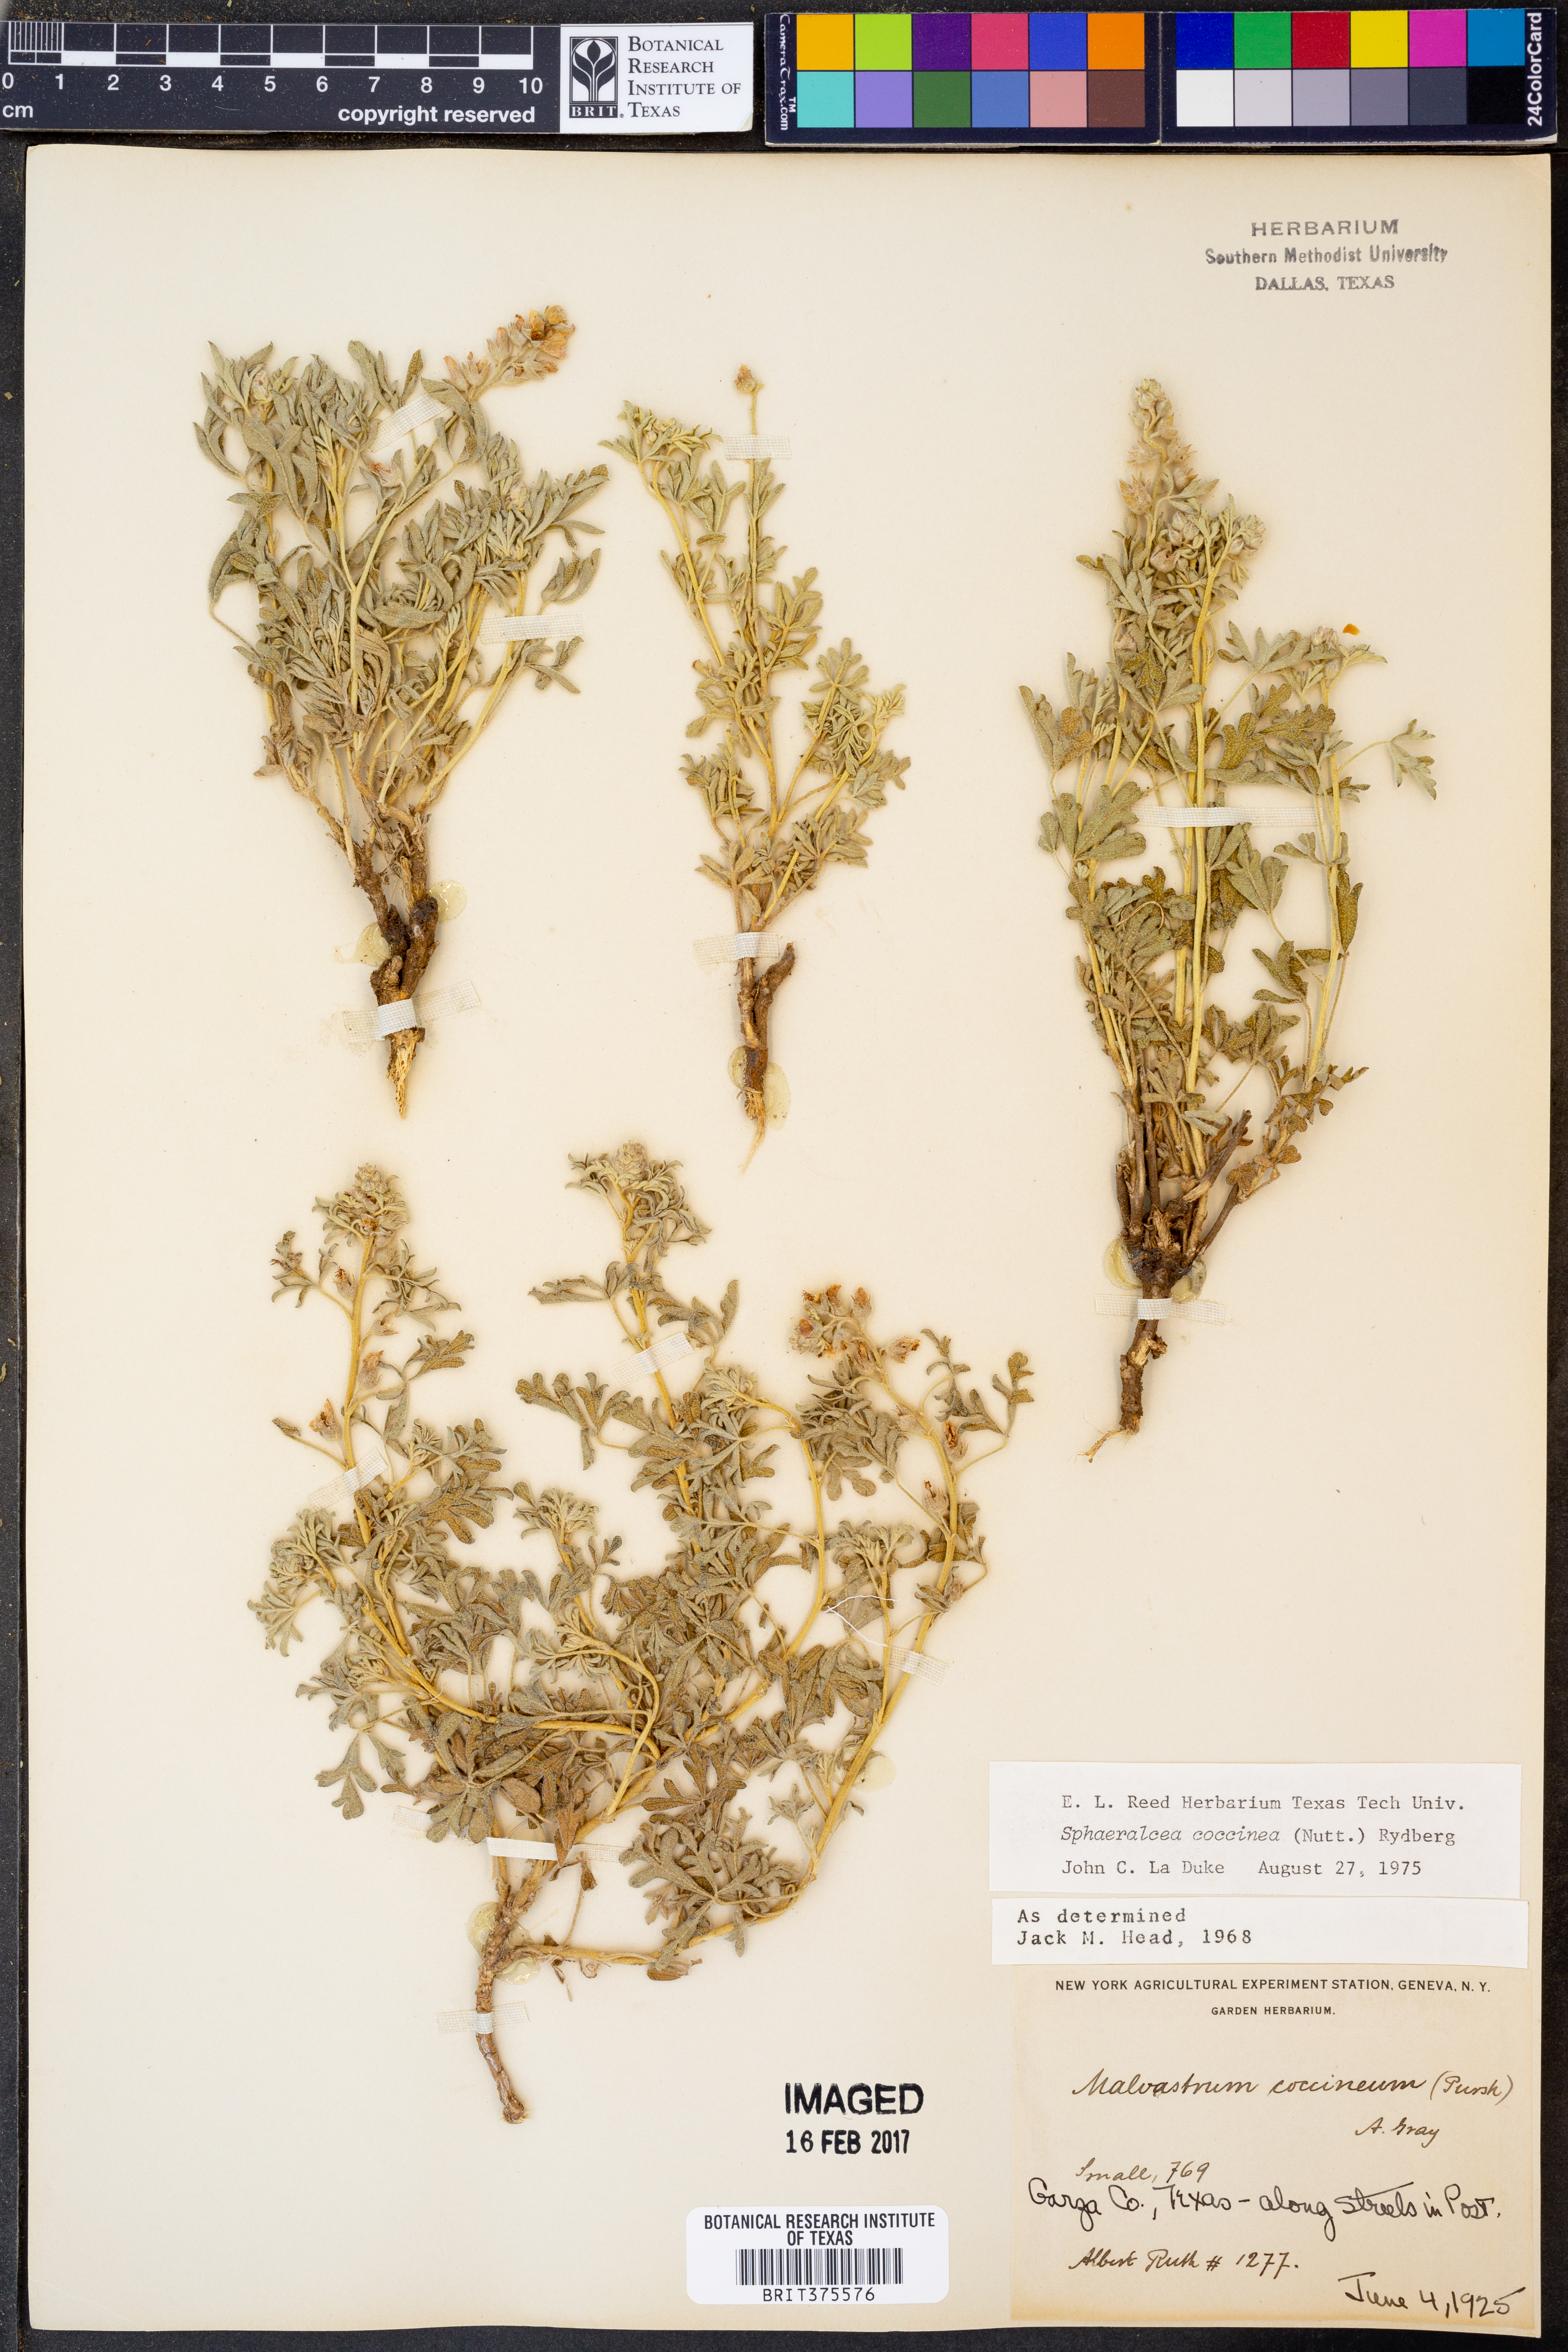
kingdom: Plantae
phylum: Tracheophyta
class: Magnoliopsida
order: Malvales
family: Malvaceae
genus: Sphaeralcea
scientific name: Sphaeralcea coccinea
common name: Moss-rose
